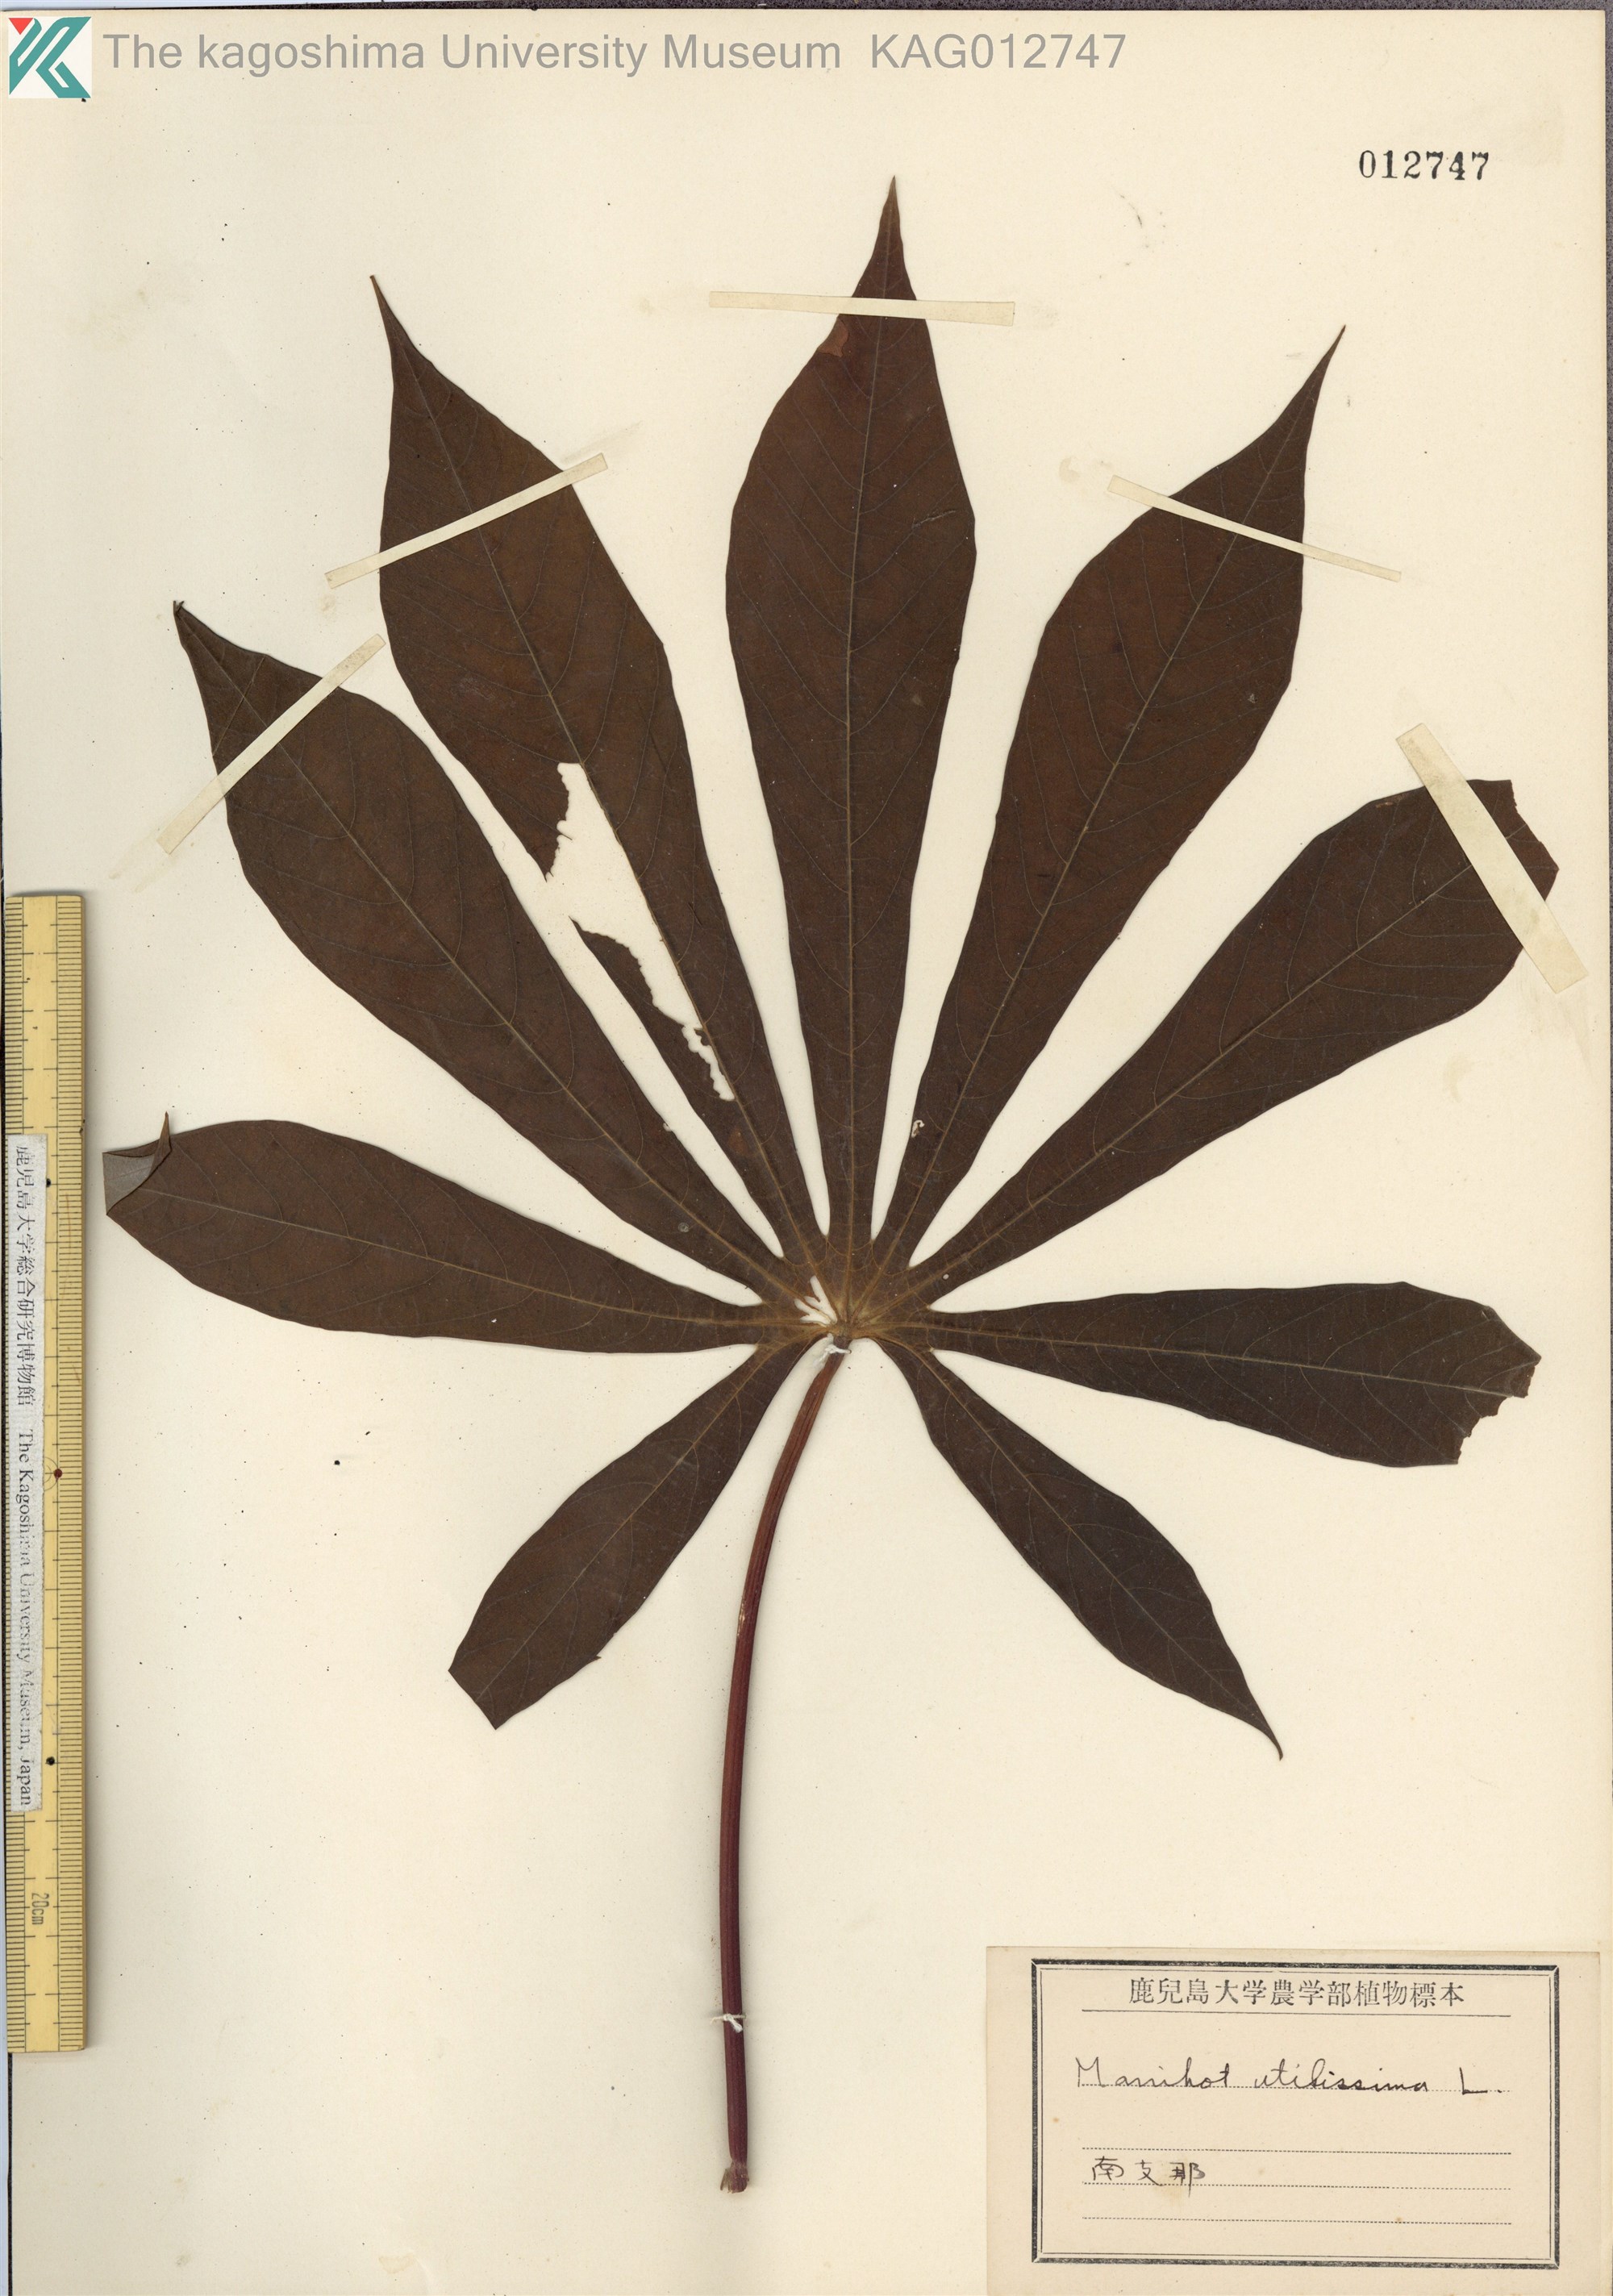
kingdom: Plantae
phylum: Tracheophyta
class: Magnoliopsida
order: Malpighiales
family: Euphorbiaceae
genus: Manihot
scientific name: Manihot esculenta
